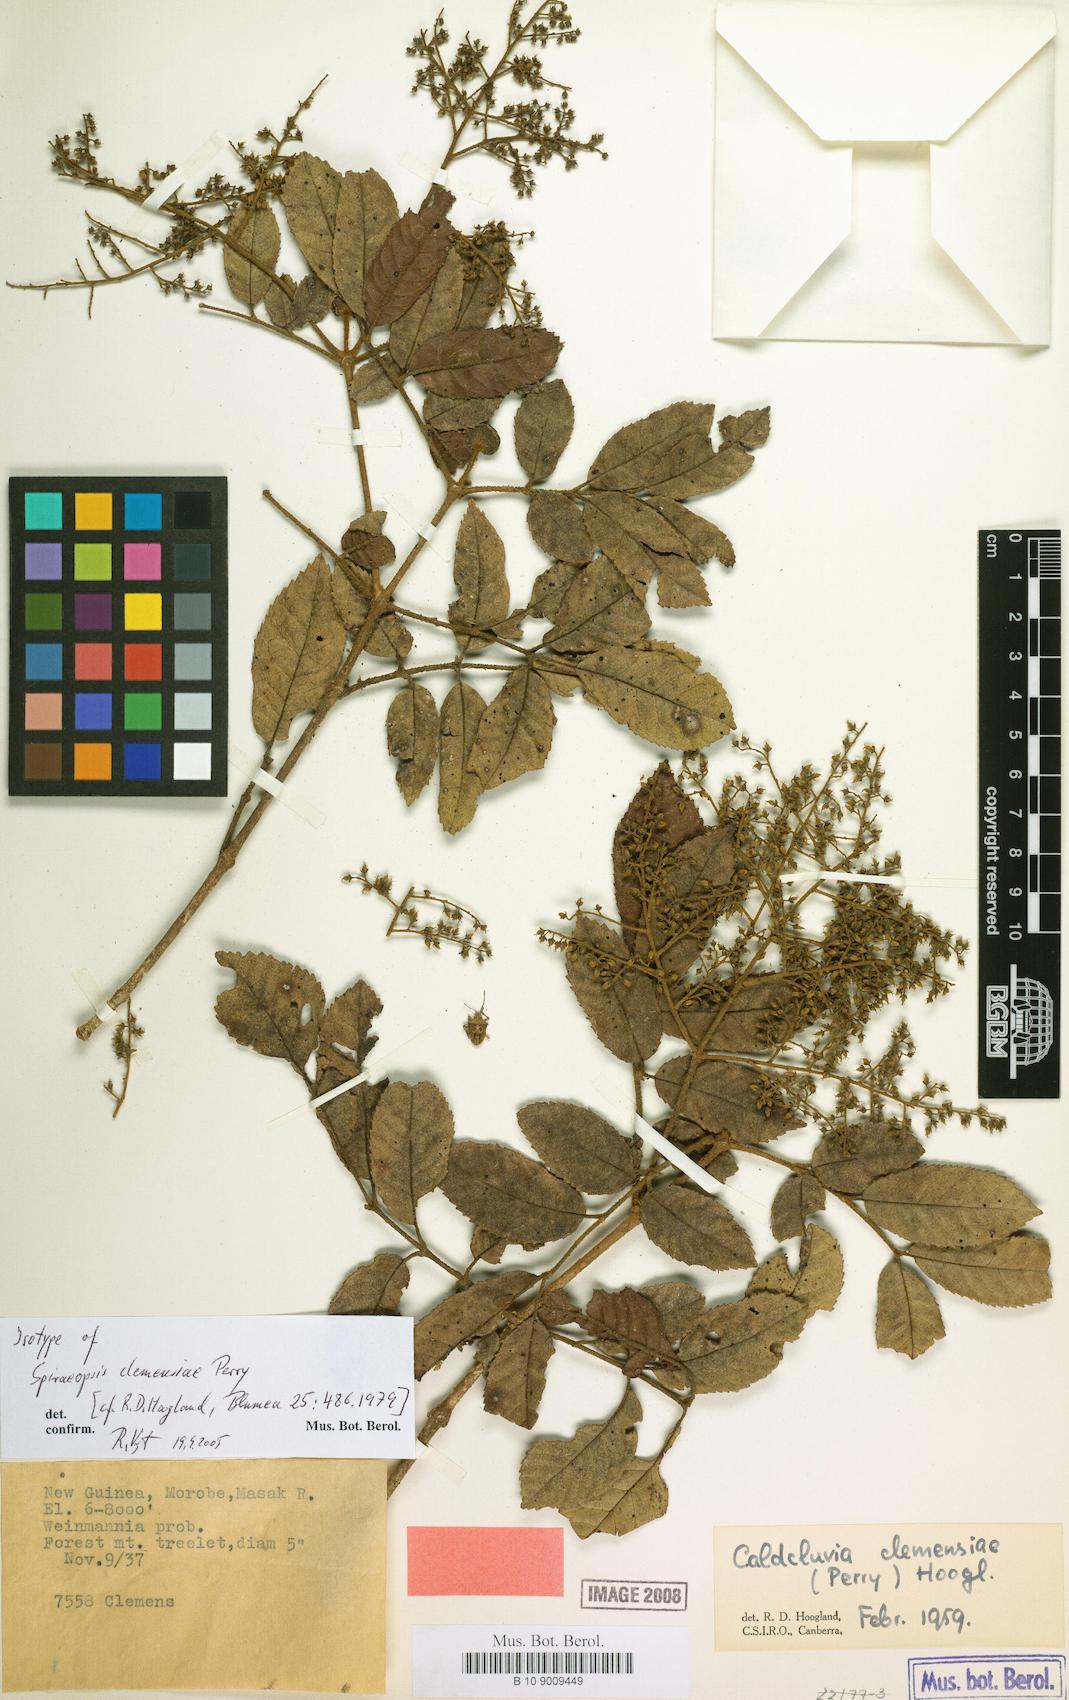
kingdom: Plantae
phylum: Tracheophyta
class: Magnoliopsida
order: Oxalidales
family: Cunoniaceae
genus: Ackama
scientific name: Ackama clemensiae
